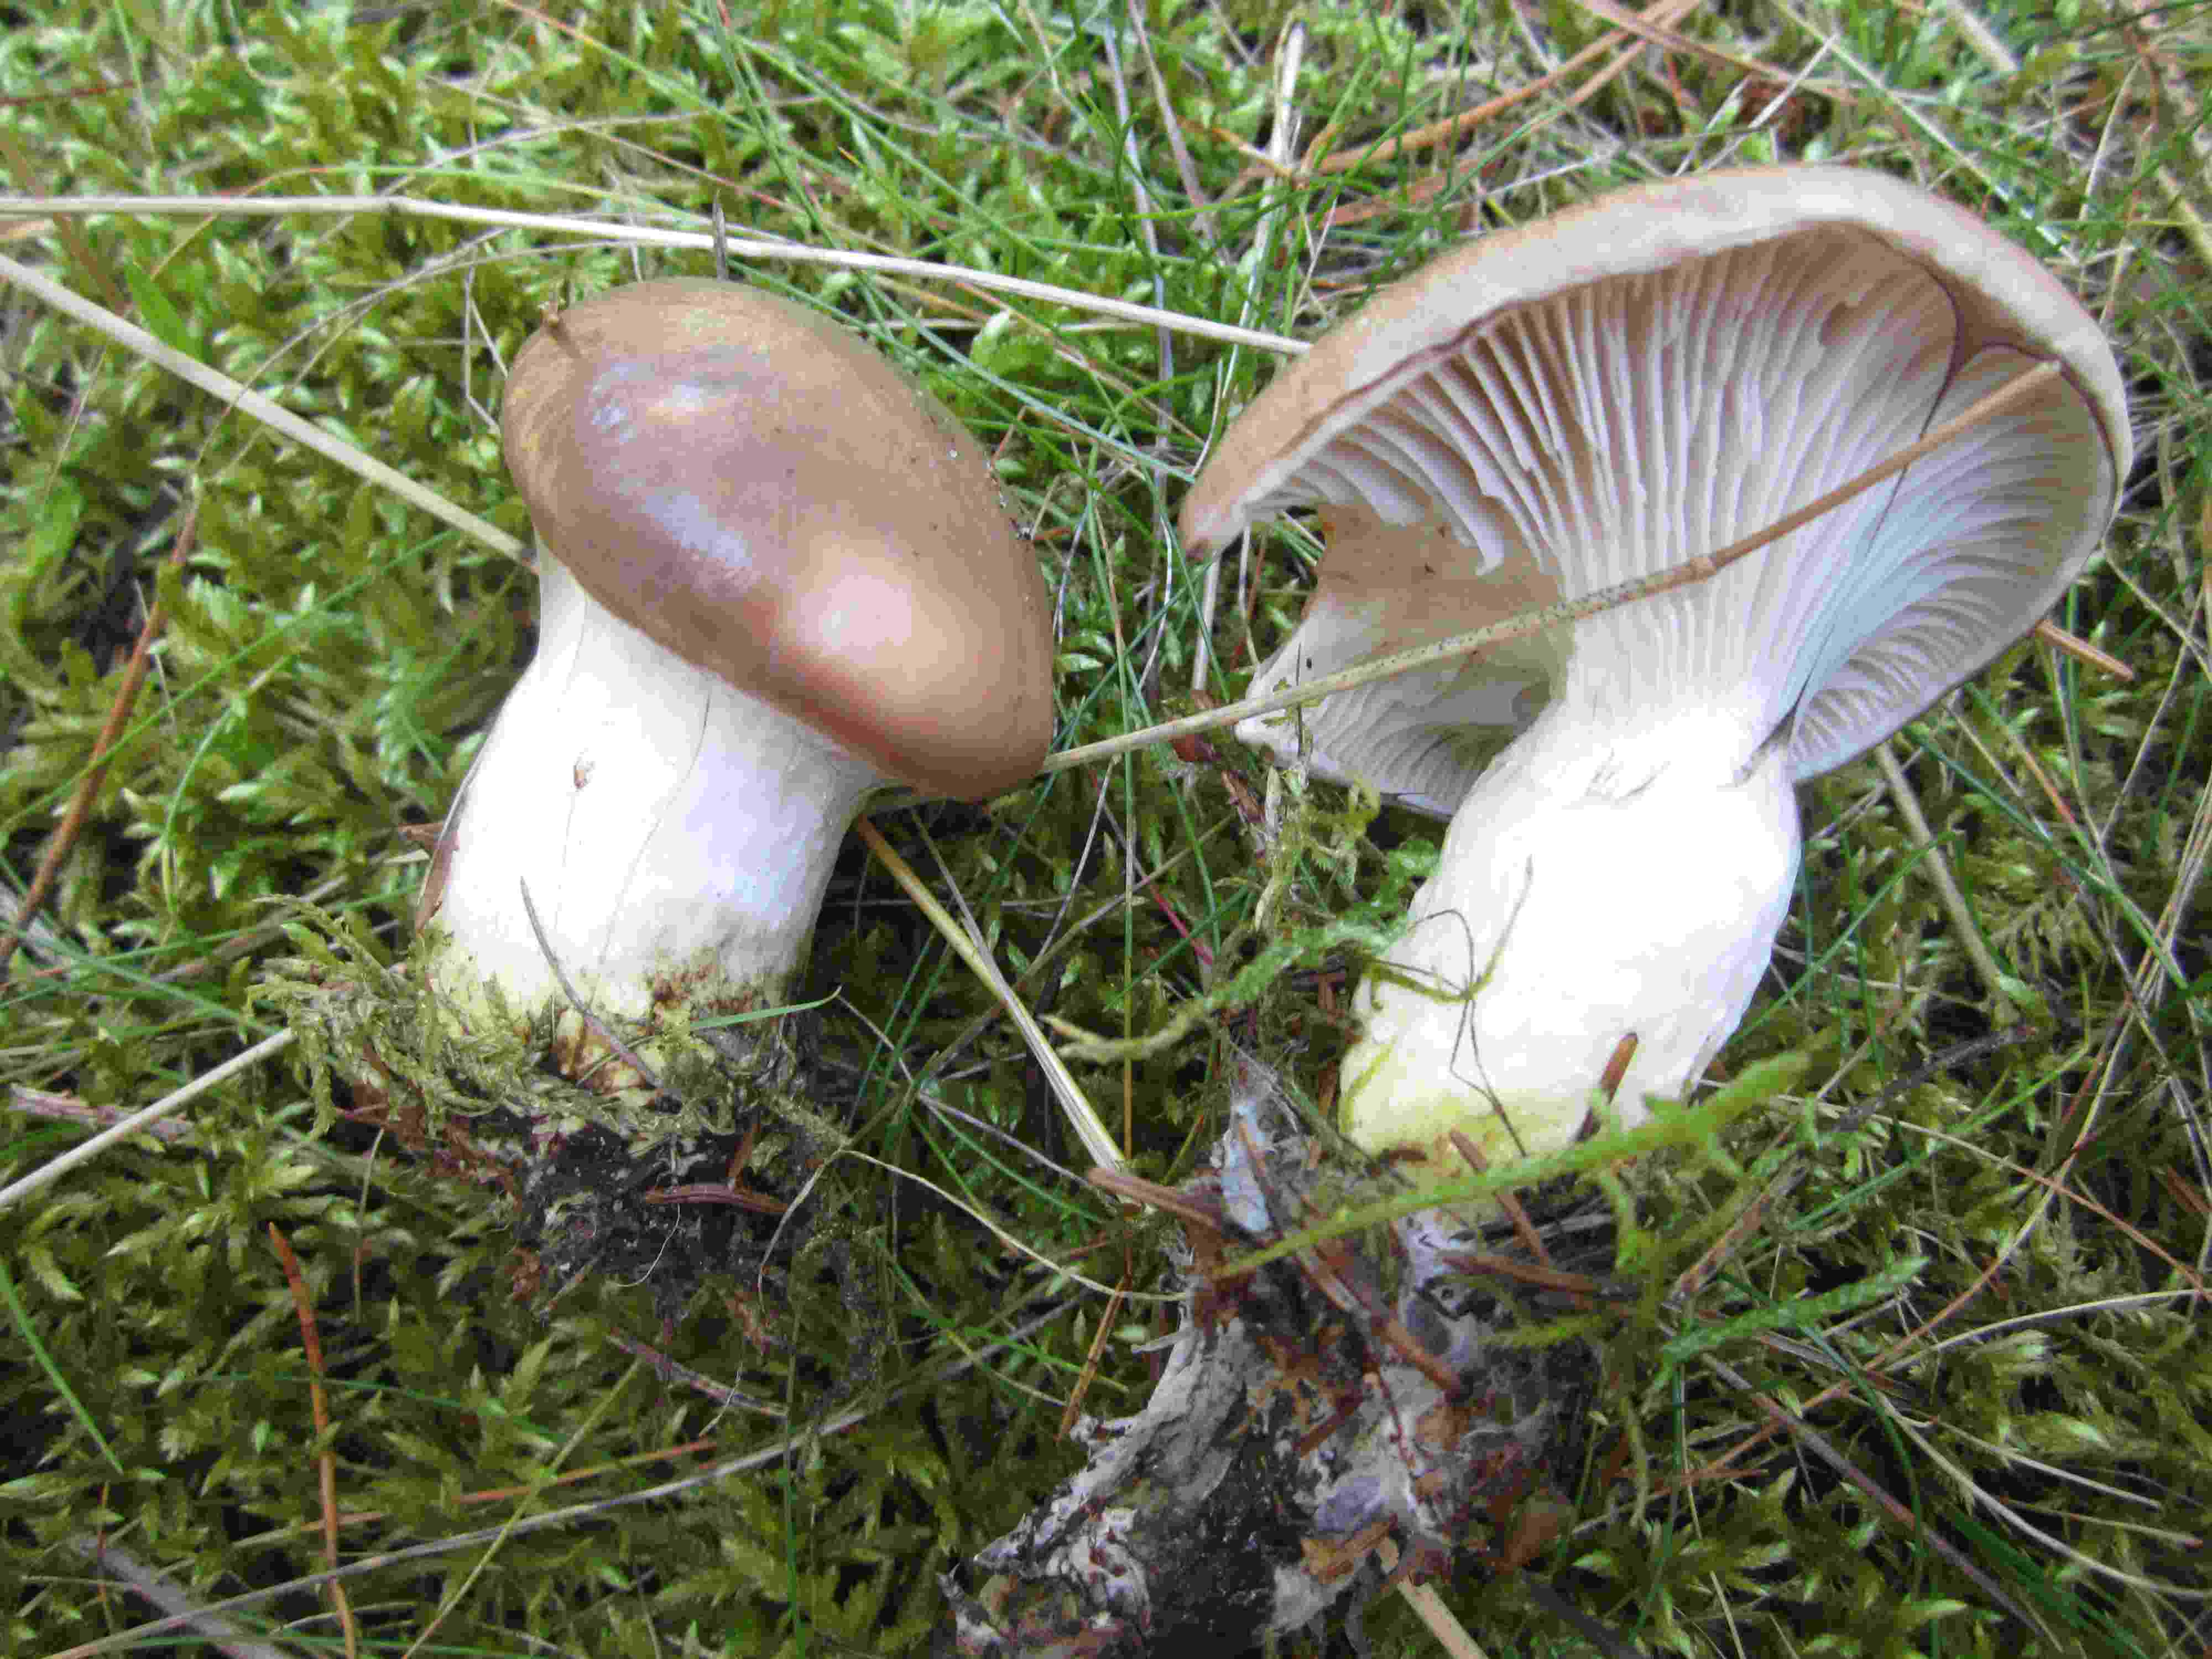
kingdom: Fungi
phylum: Basidiomycota
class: Agaricomycetes
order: Boletales
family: Gomphidiaceae
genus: Gomphidius
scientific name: Gomphidius glutinosus
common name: grå slimslør
